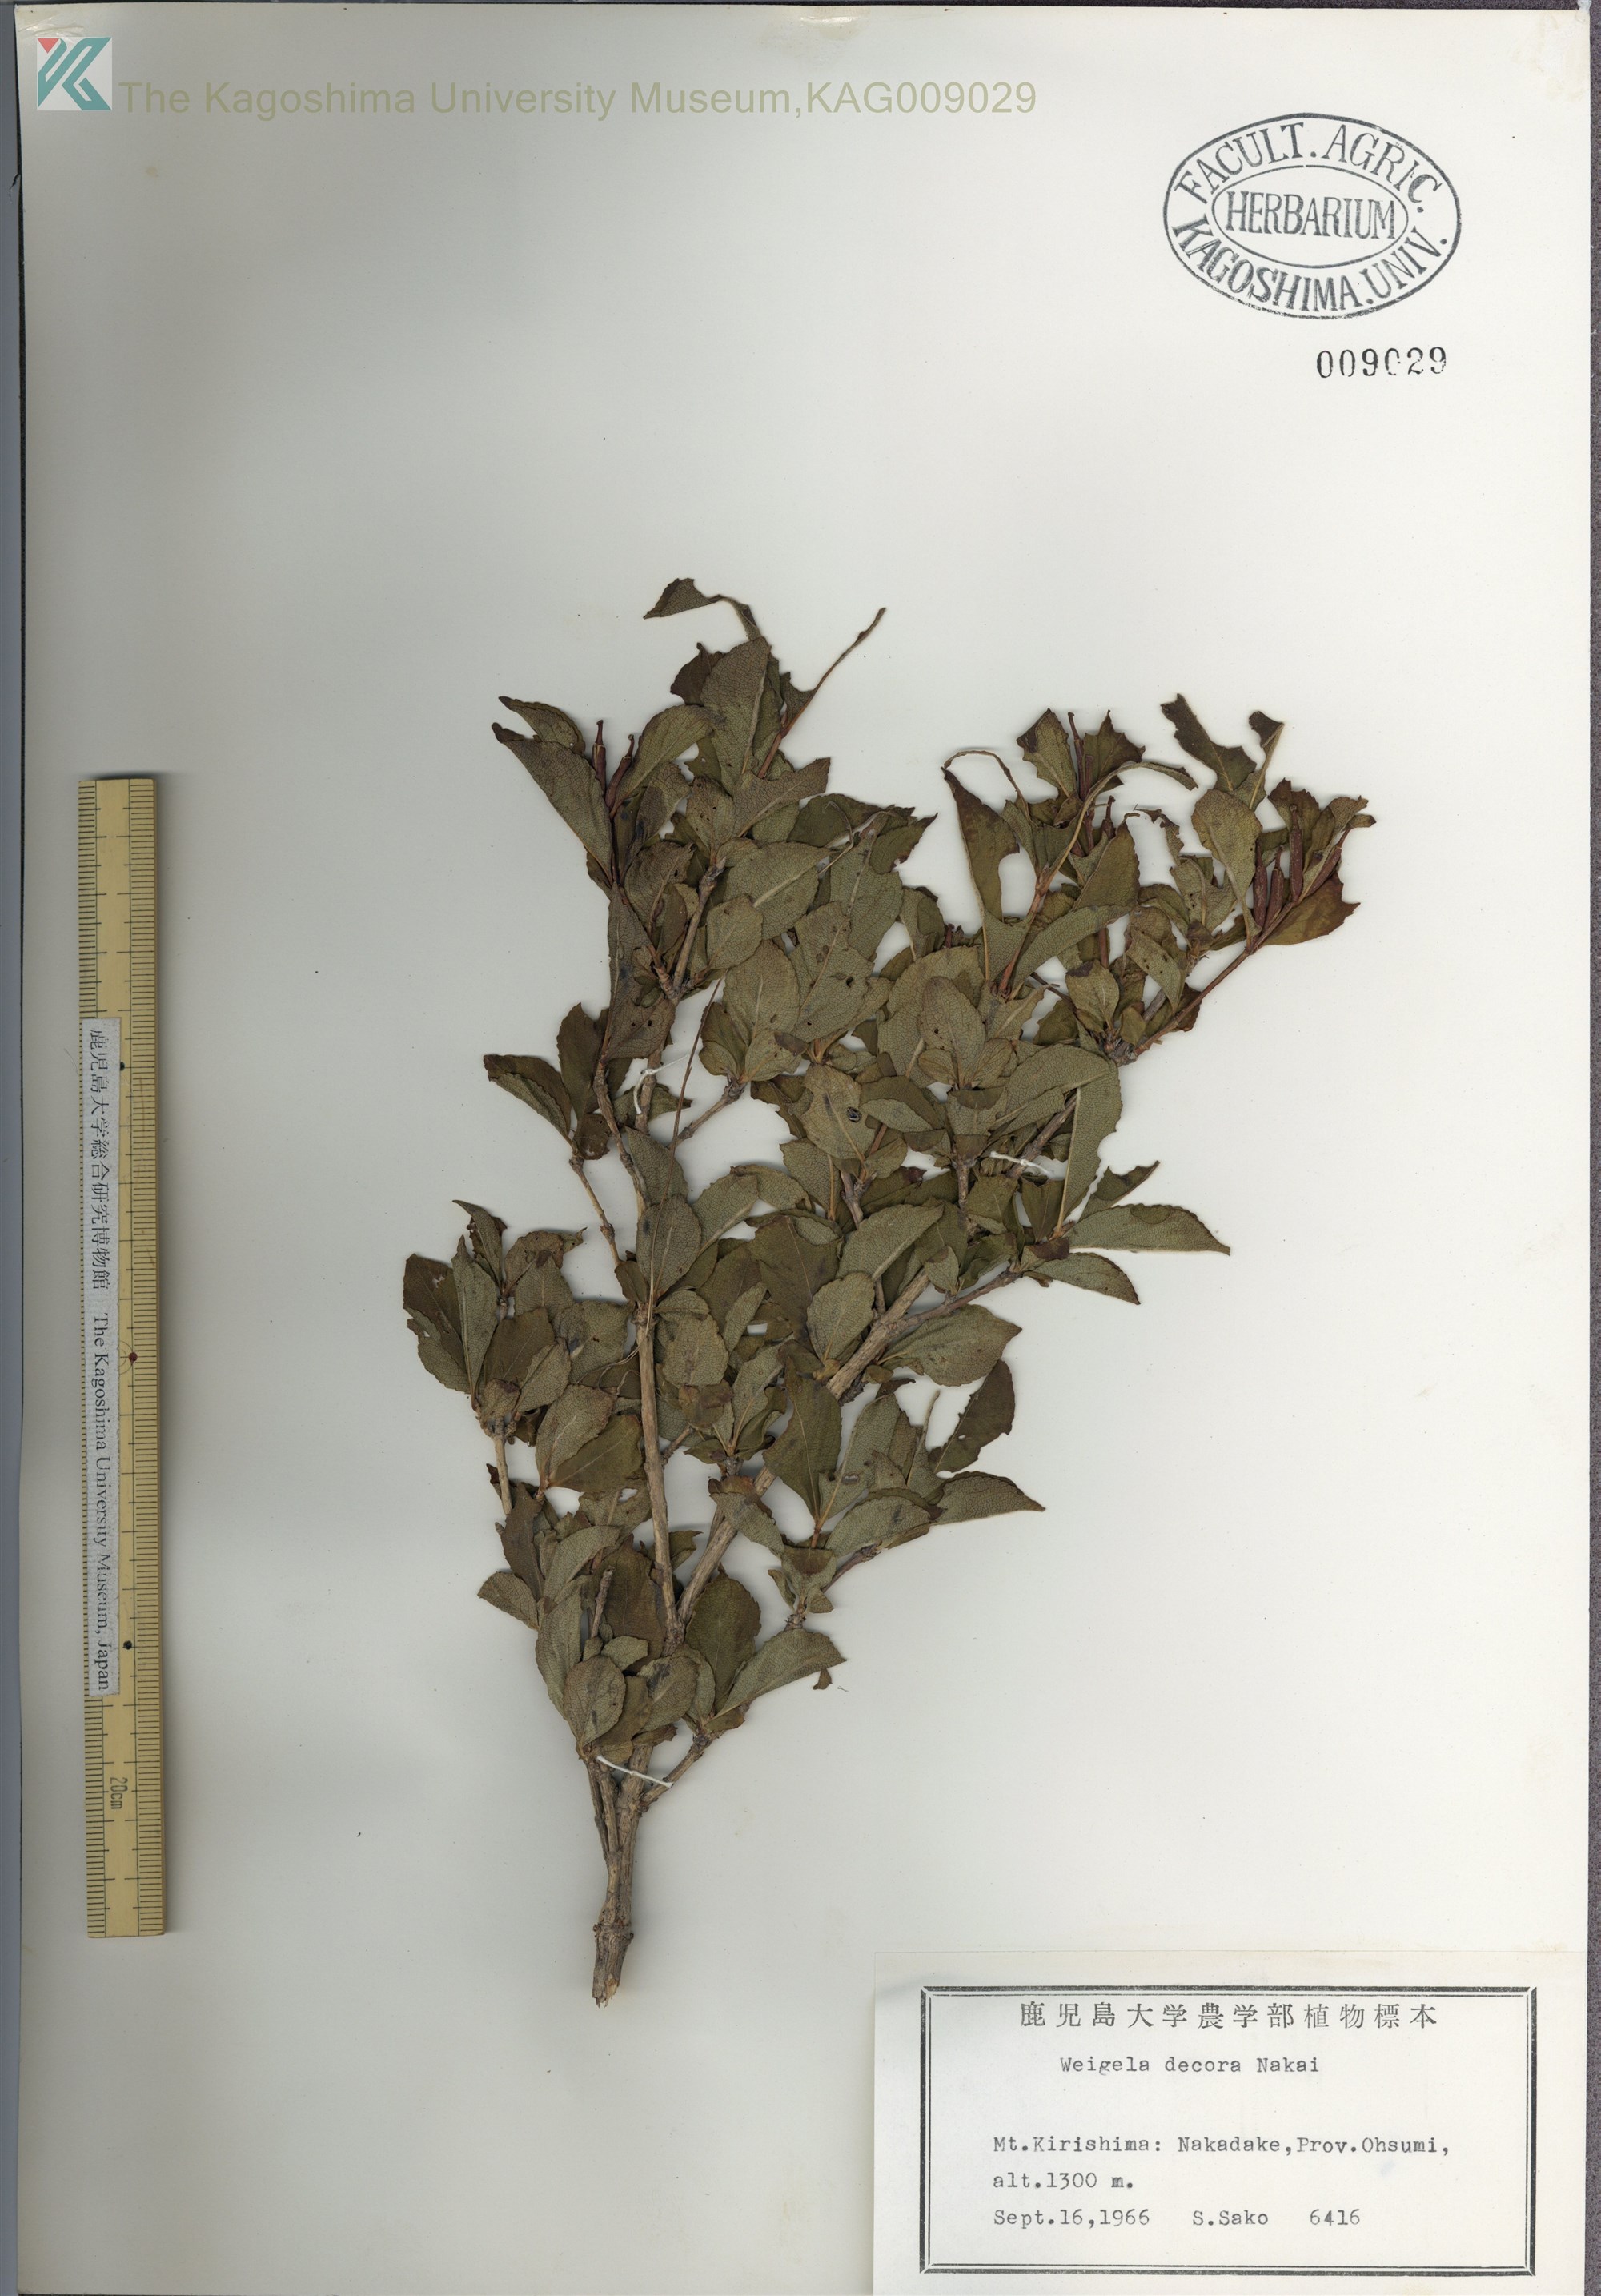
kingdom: Plantae
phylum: Tracheophyta
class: Magnoliopsida
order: Dipsacales
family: Caprifoliaceae
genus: Weigela
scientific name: Weigela decora
